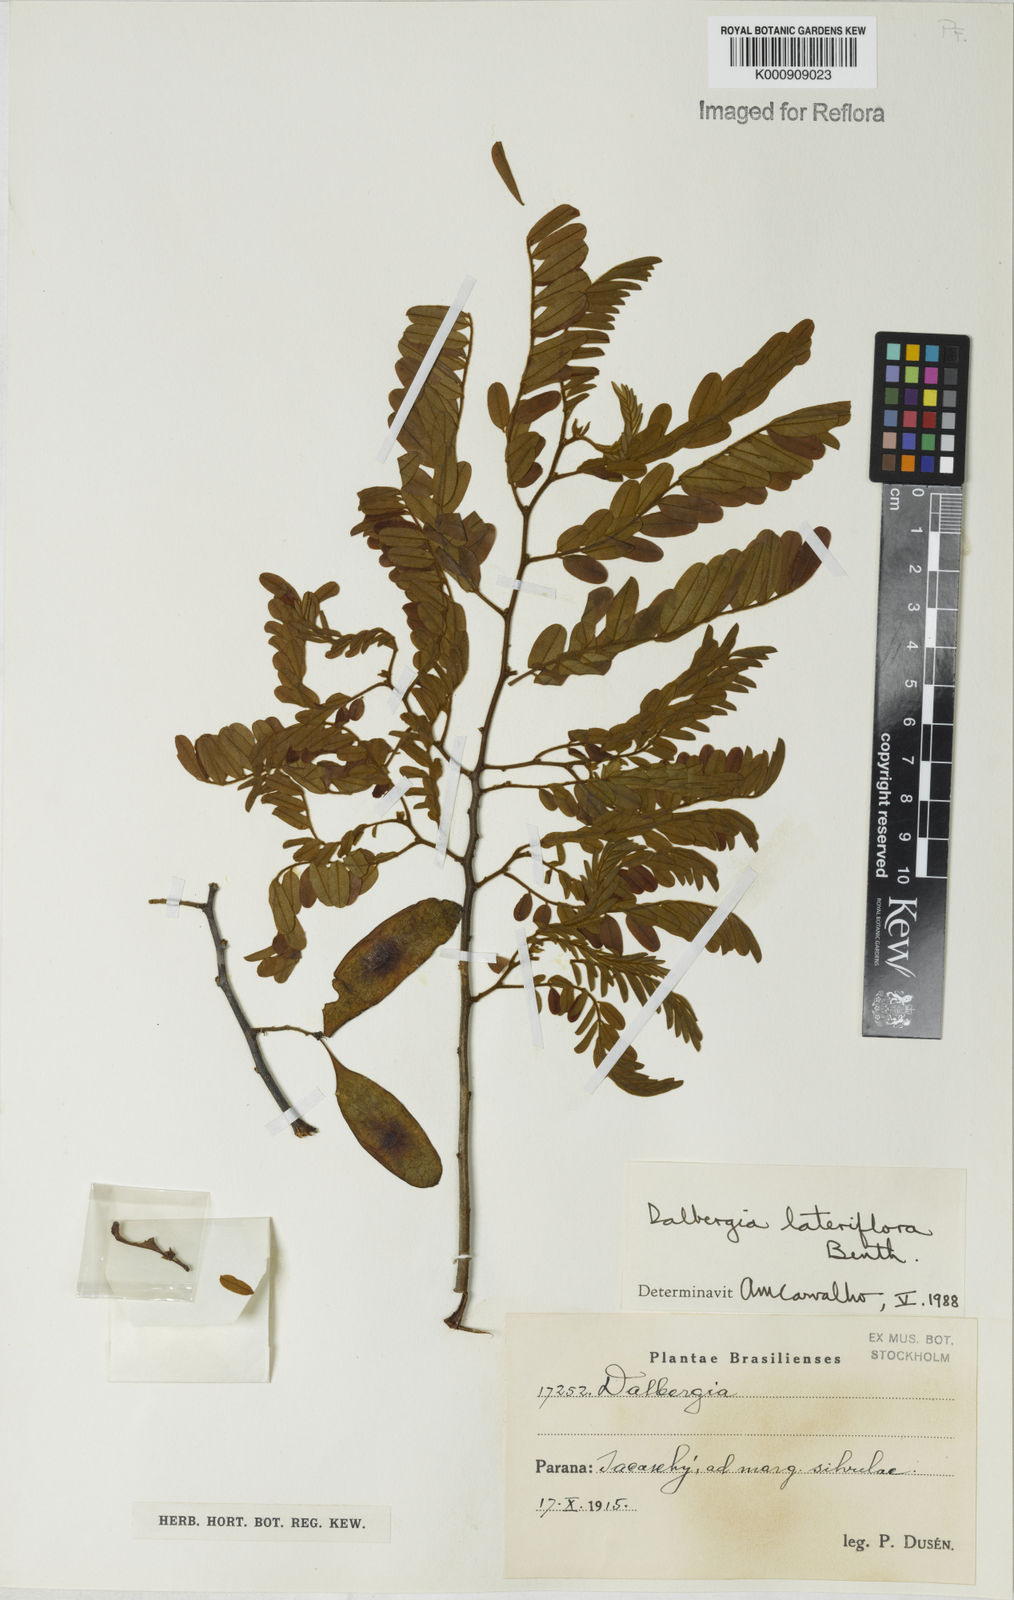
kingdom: Plantae
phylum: Tracheophyta
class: Magnoliopsida
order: Fabales
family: Fabaceae
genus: Dalbergia
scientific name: Dalbergia lateriflora
